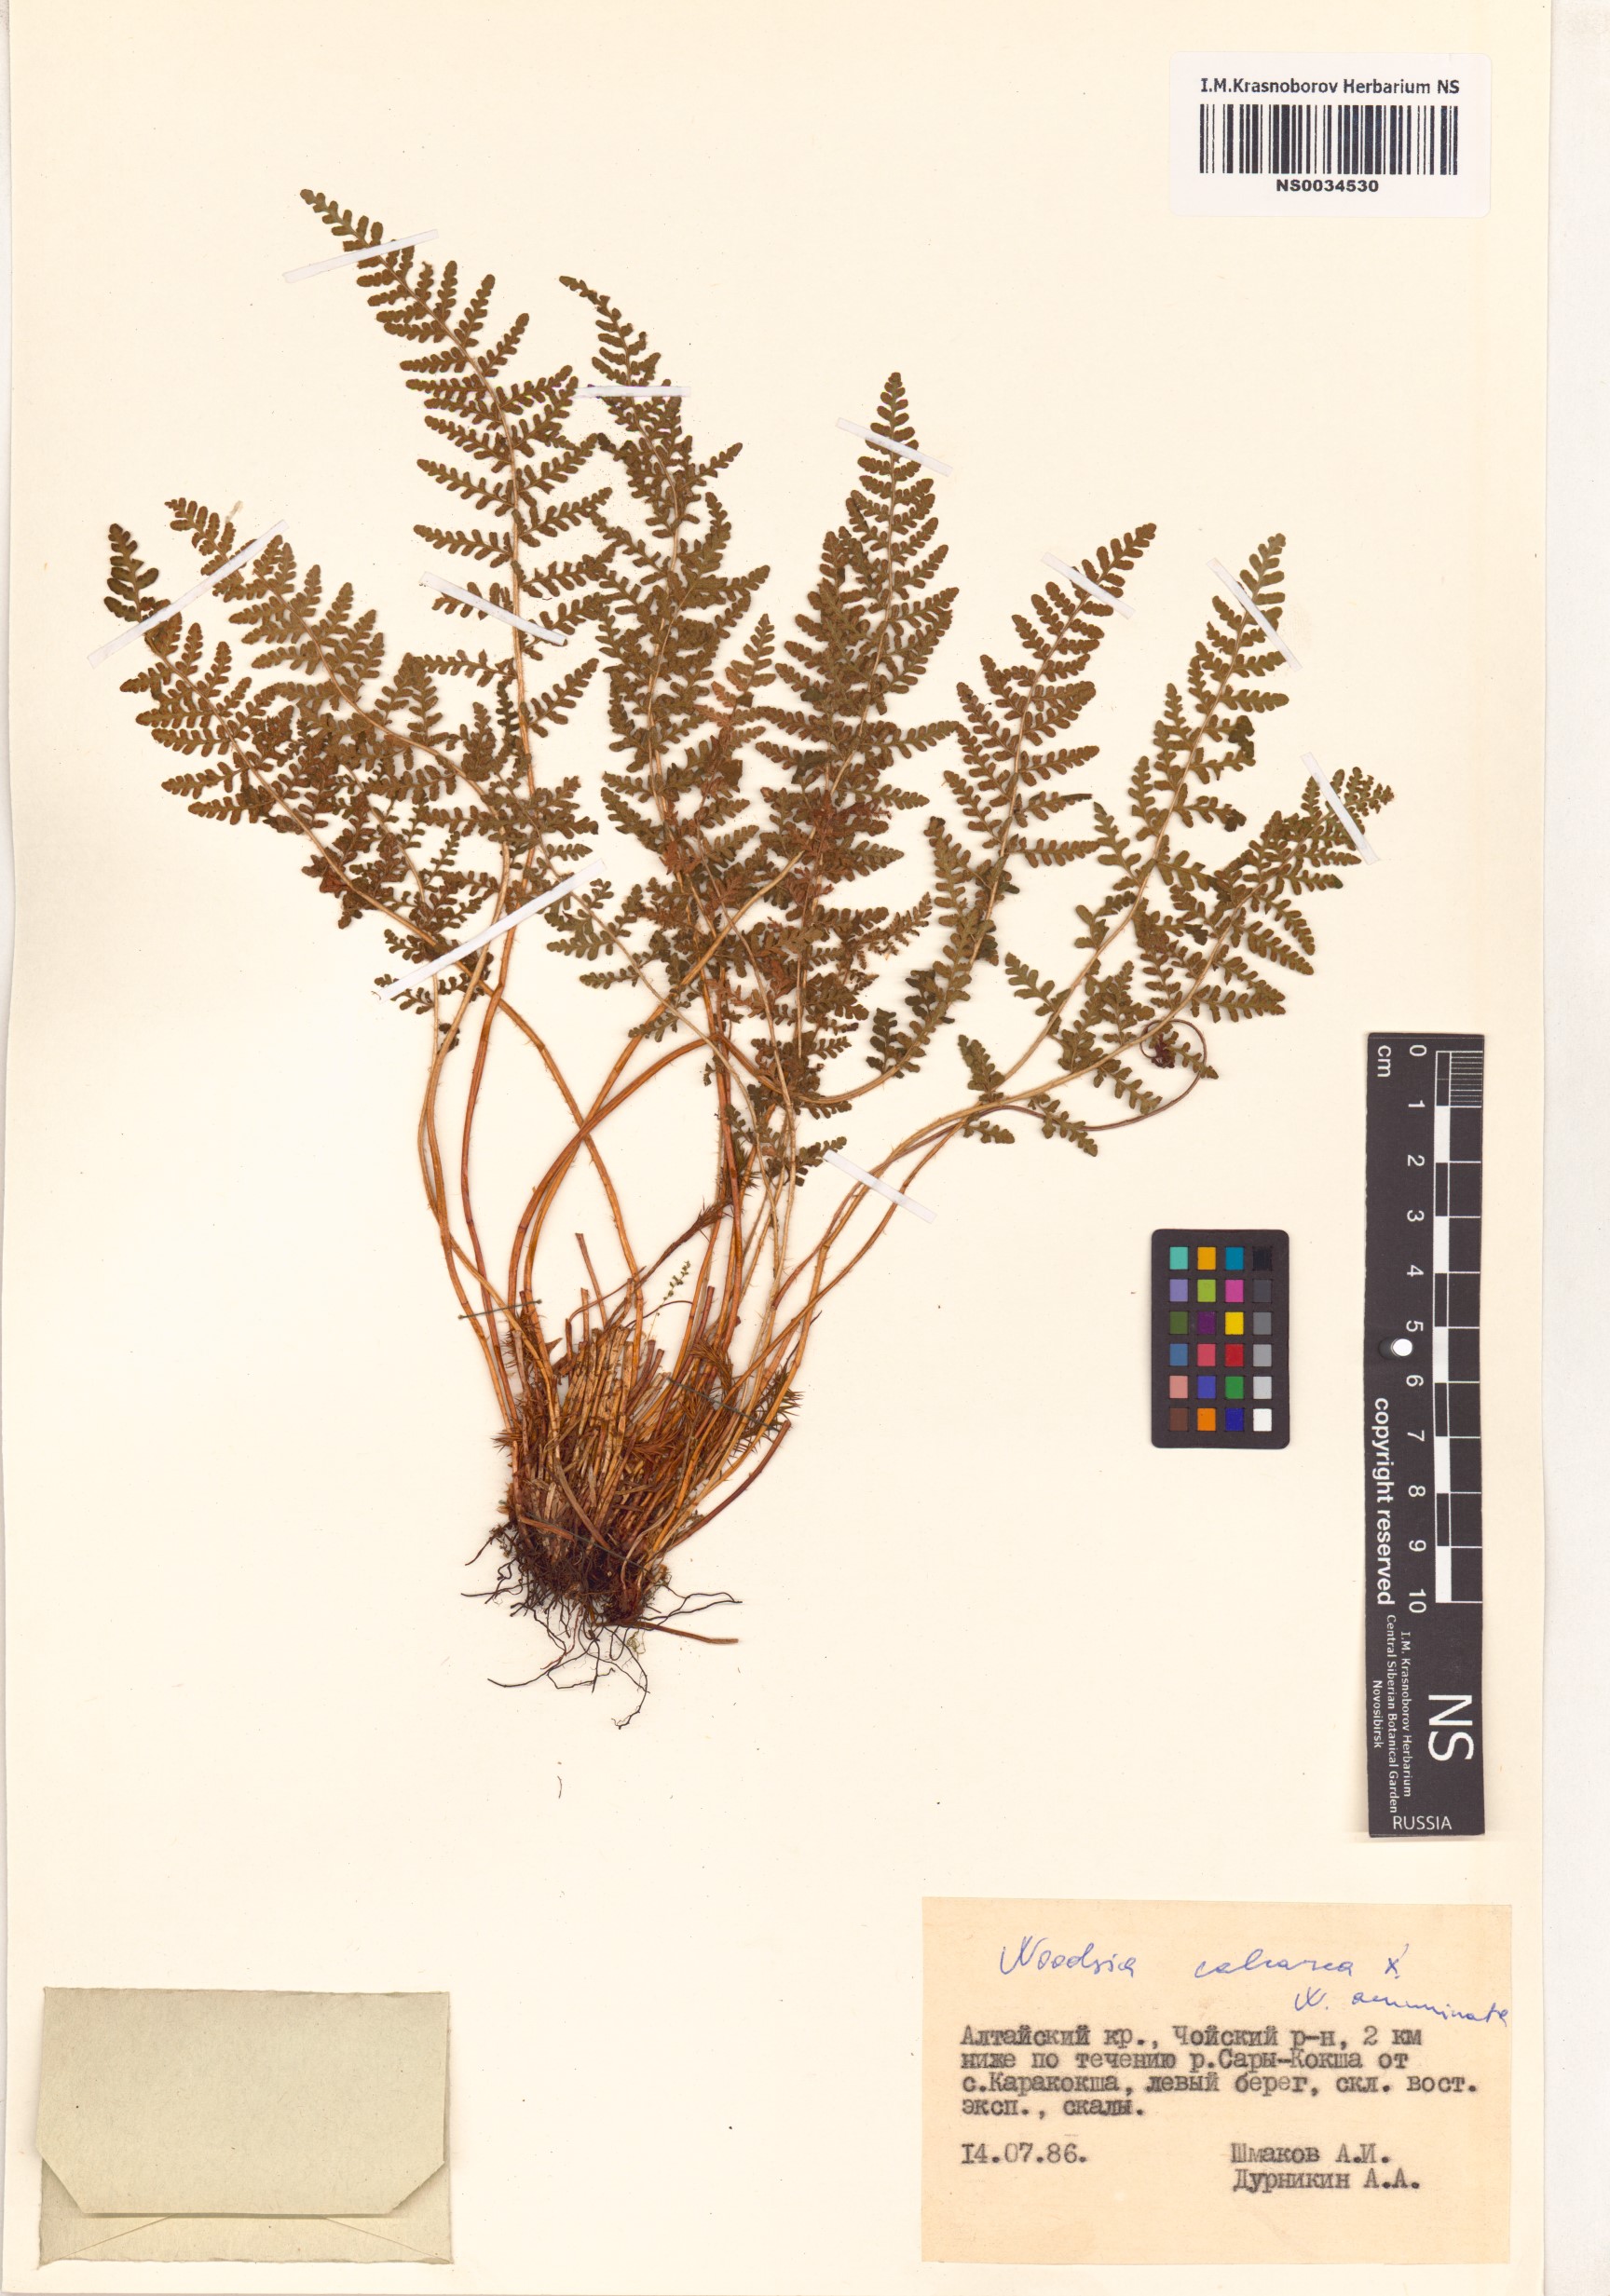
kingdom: Plantae
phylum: Tracheophyta
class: Polypodiopsida
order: Polypodiales
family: Woodsiaceae
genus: Woodsia
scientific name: Woodsia calcarea
